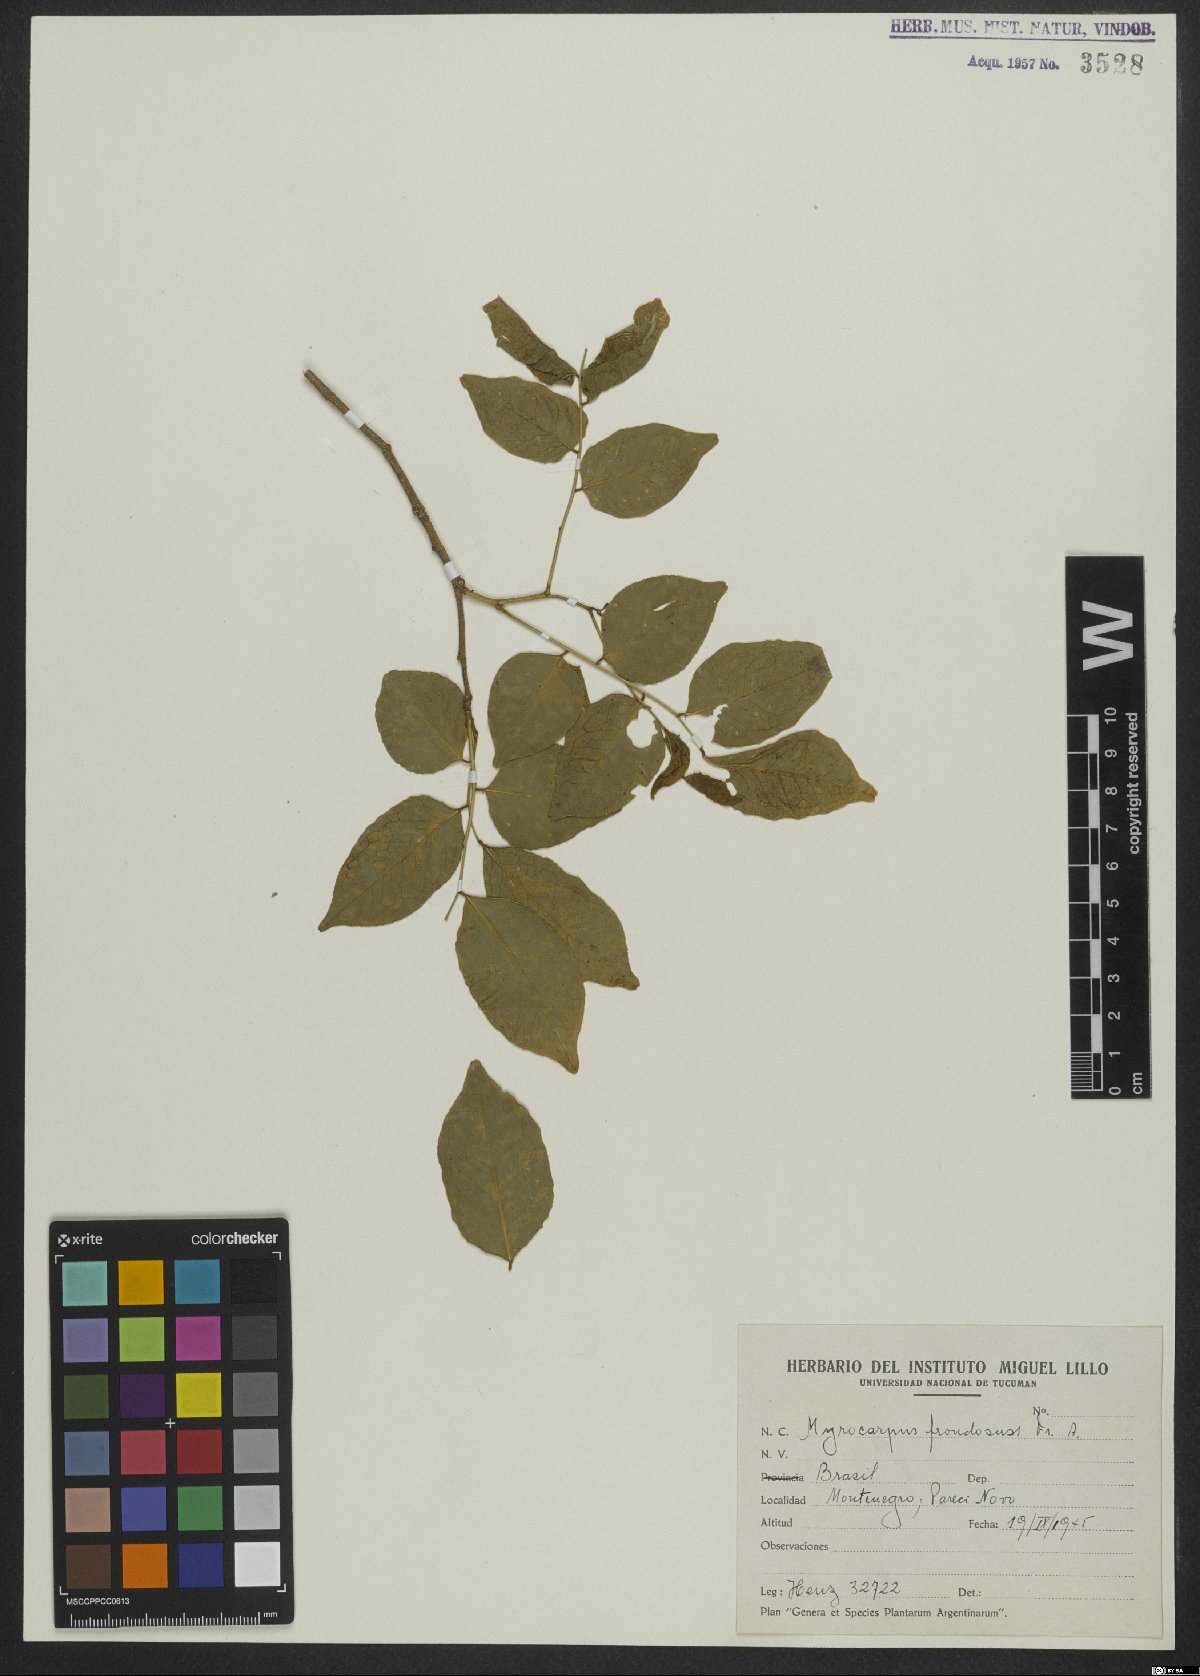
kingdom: Plantae
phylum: Tracheophyta
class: Magnoliopsida
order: Fabales
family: Fabaceae
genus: Myrocarpus
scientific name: Myrocarpus frondosus
